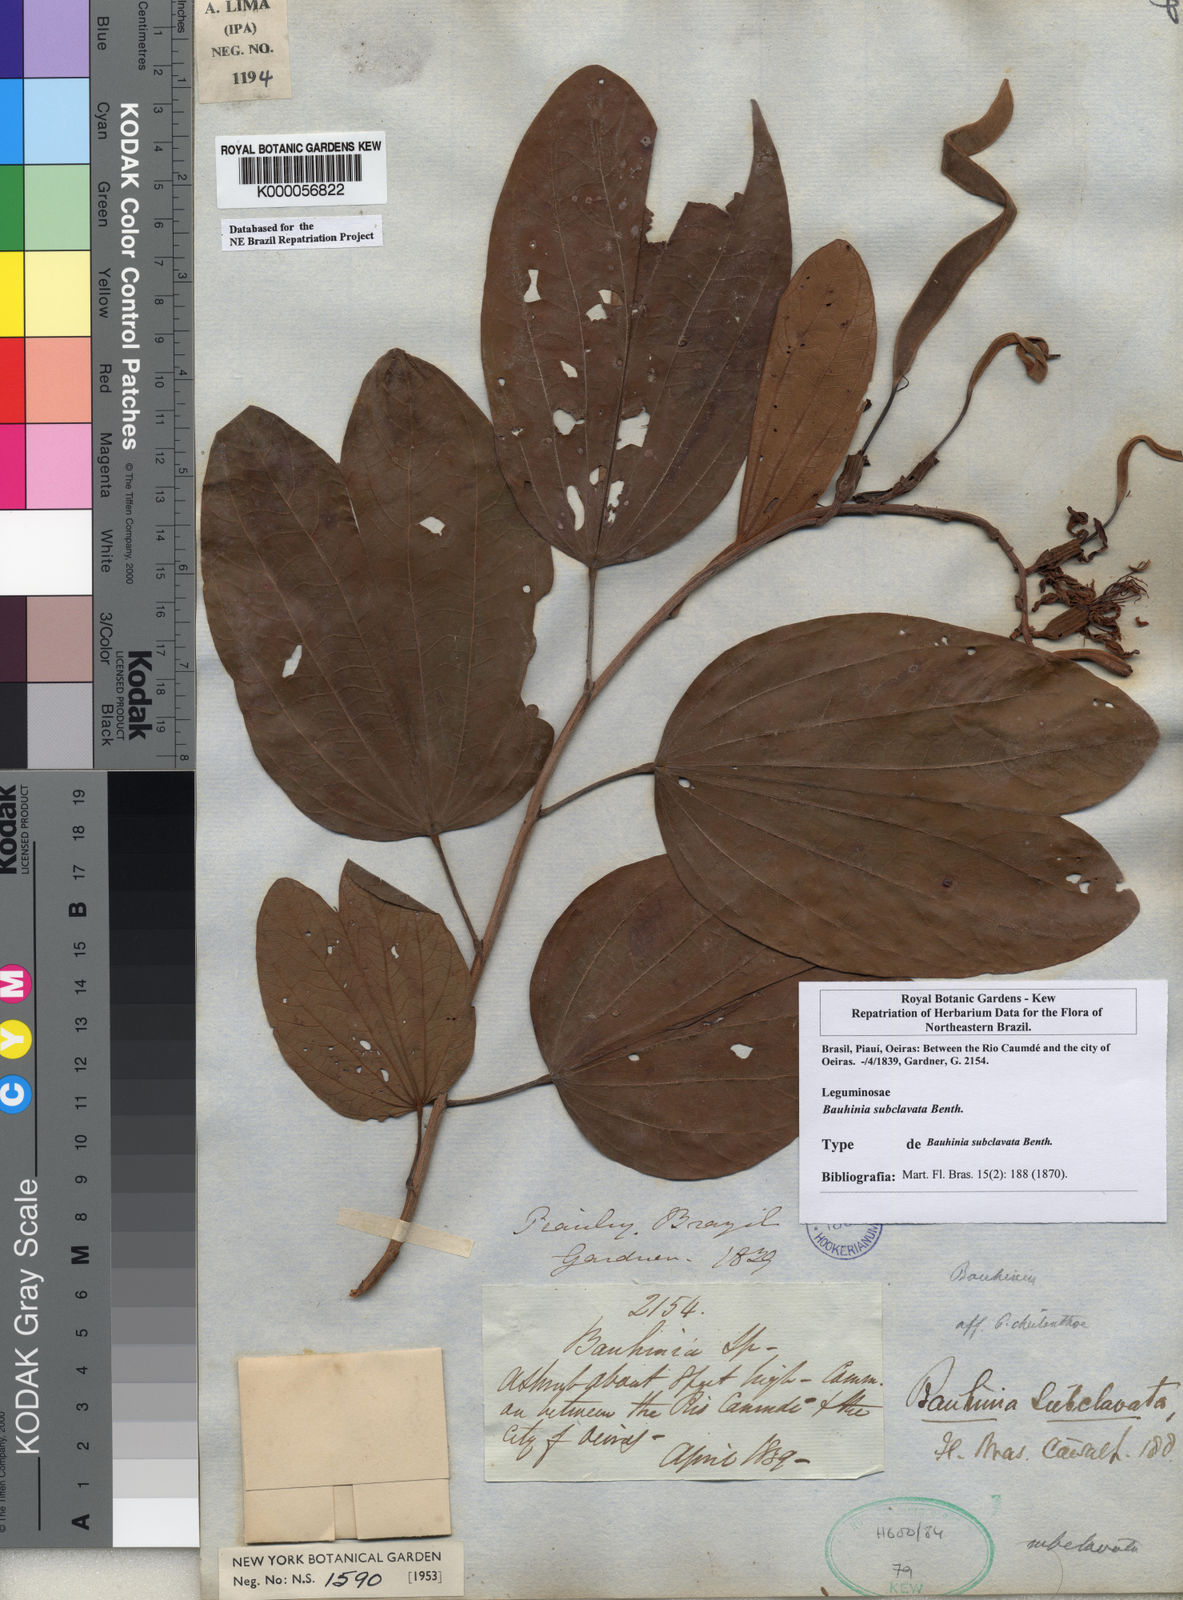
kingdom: Plantae
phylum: Tracheophyta
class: Magnoliopsida
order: Fabales
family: Fabaceae
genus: Bauhinia
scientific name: Bauhinia subclavata
